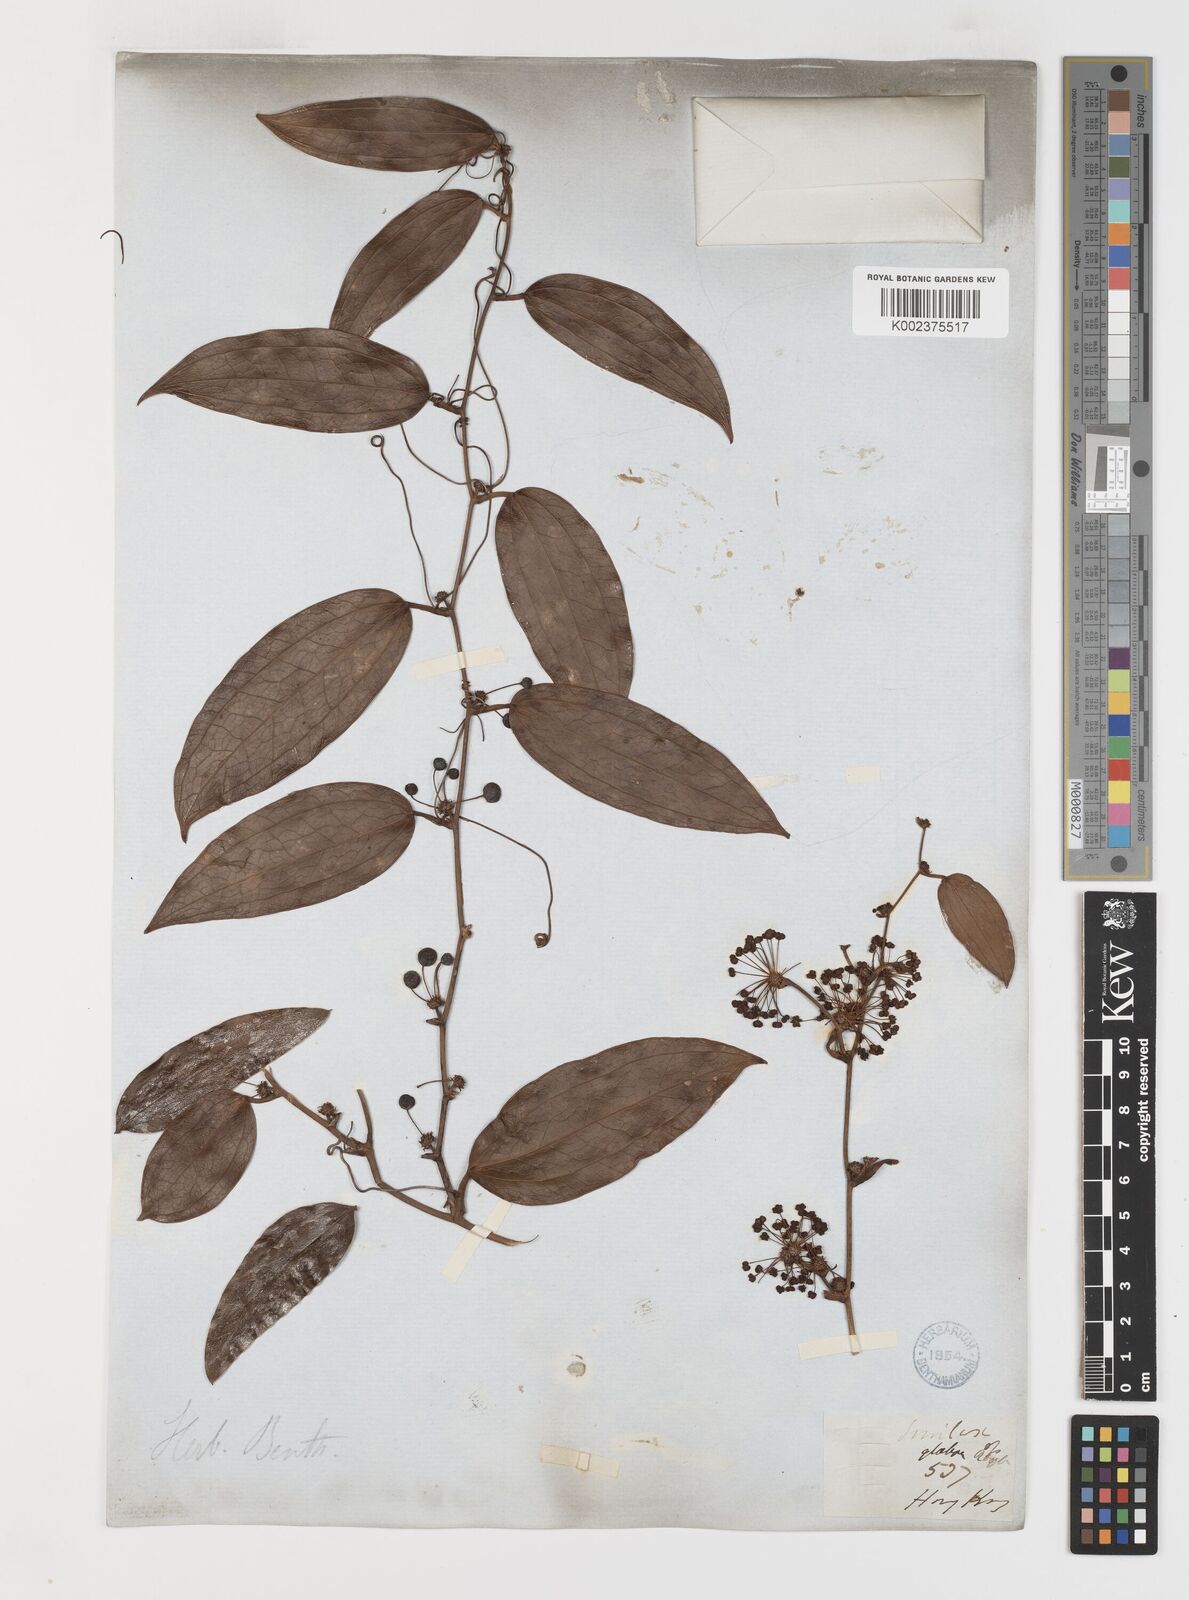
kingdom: Plantae
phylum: Tracheophyta
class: Liliopsida
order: Liliales
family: Smilacaceae
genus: Smilax
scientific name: Smilax glabra
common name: Chinese smilax
